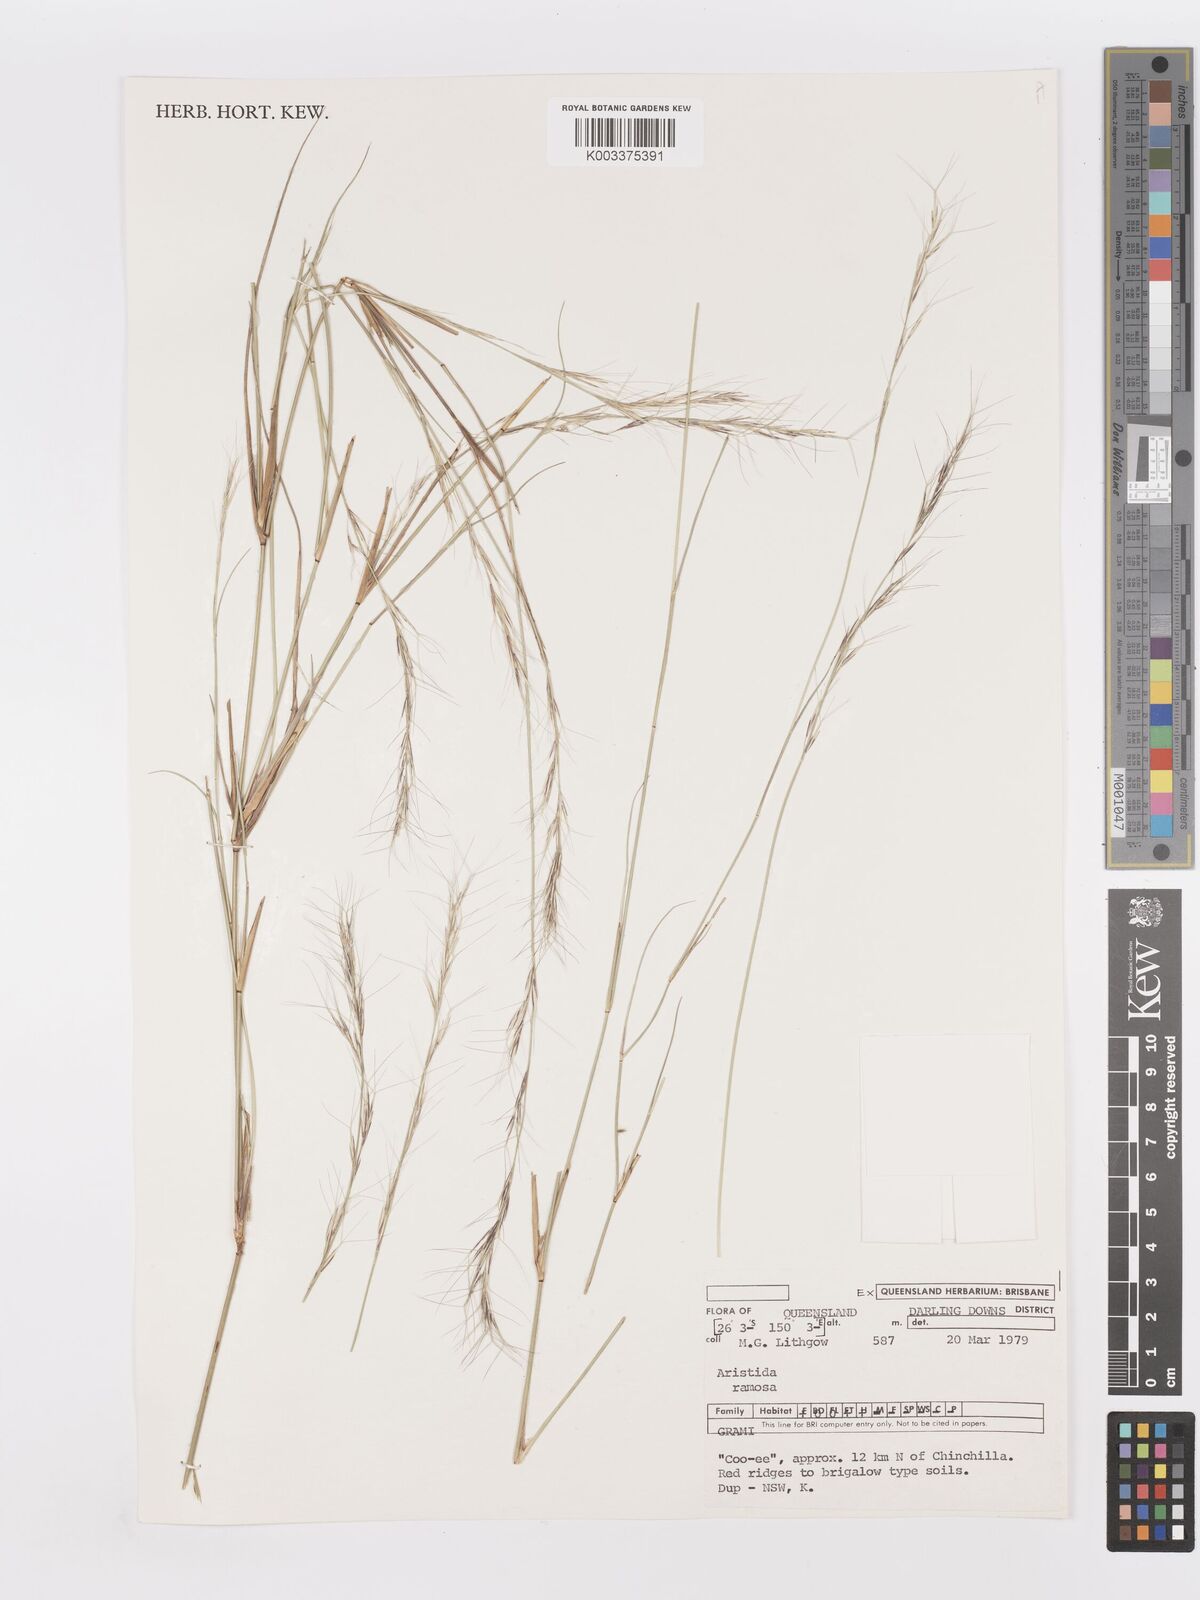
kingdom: Plantae
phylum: Tracheophyta
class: Liliopsida
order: Poales
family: Poaceae
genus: Aristida
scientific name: Aristida ramosa
